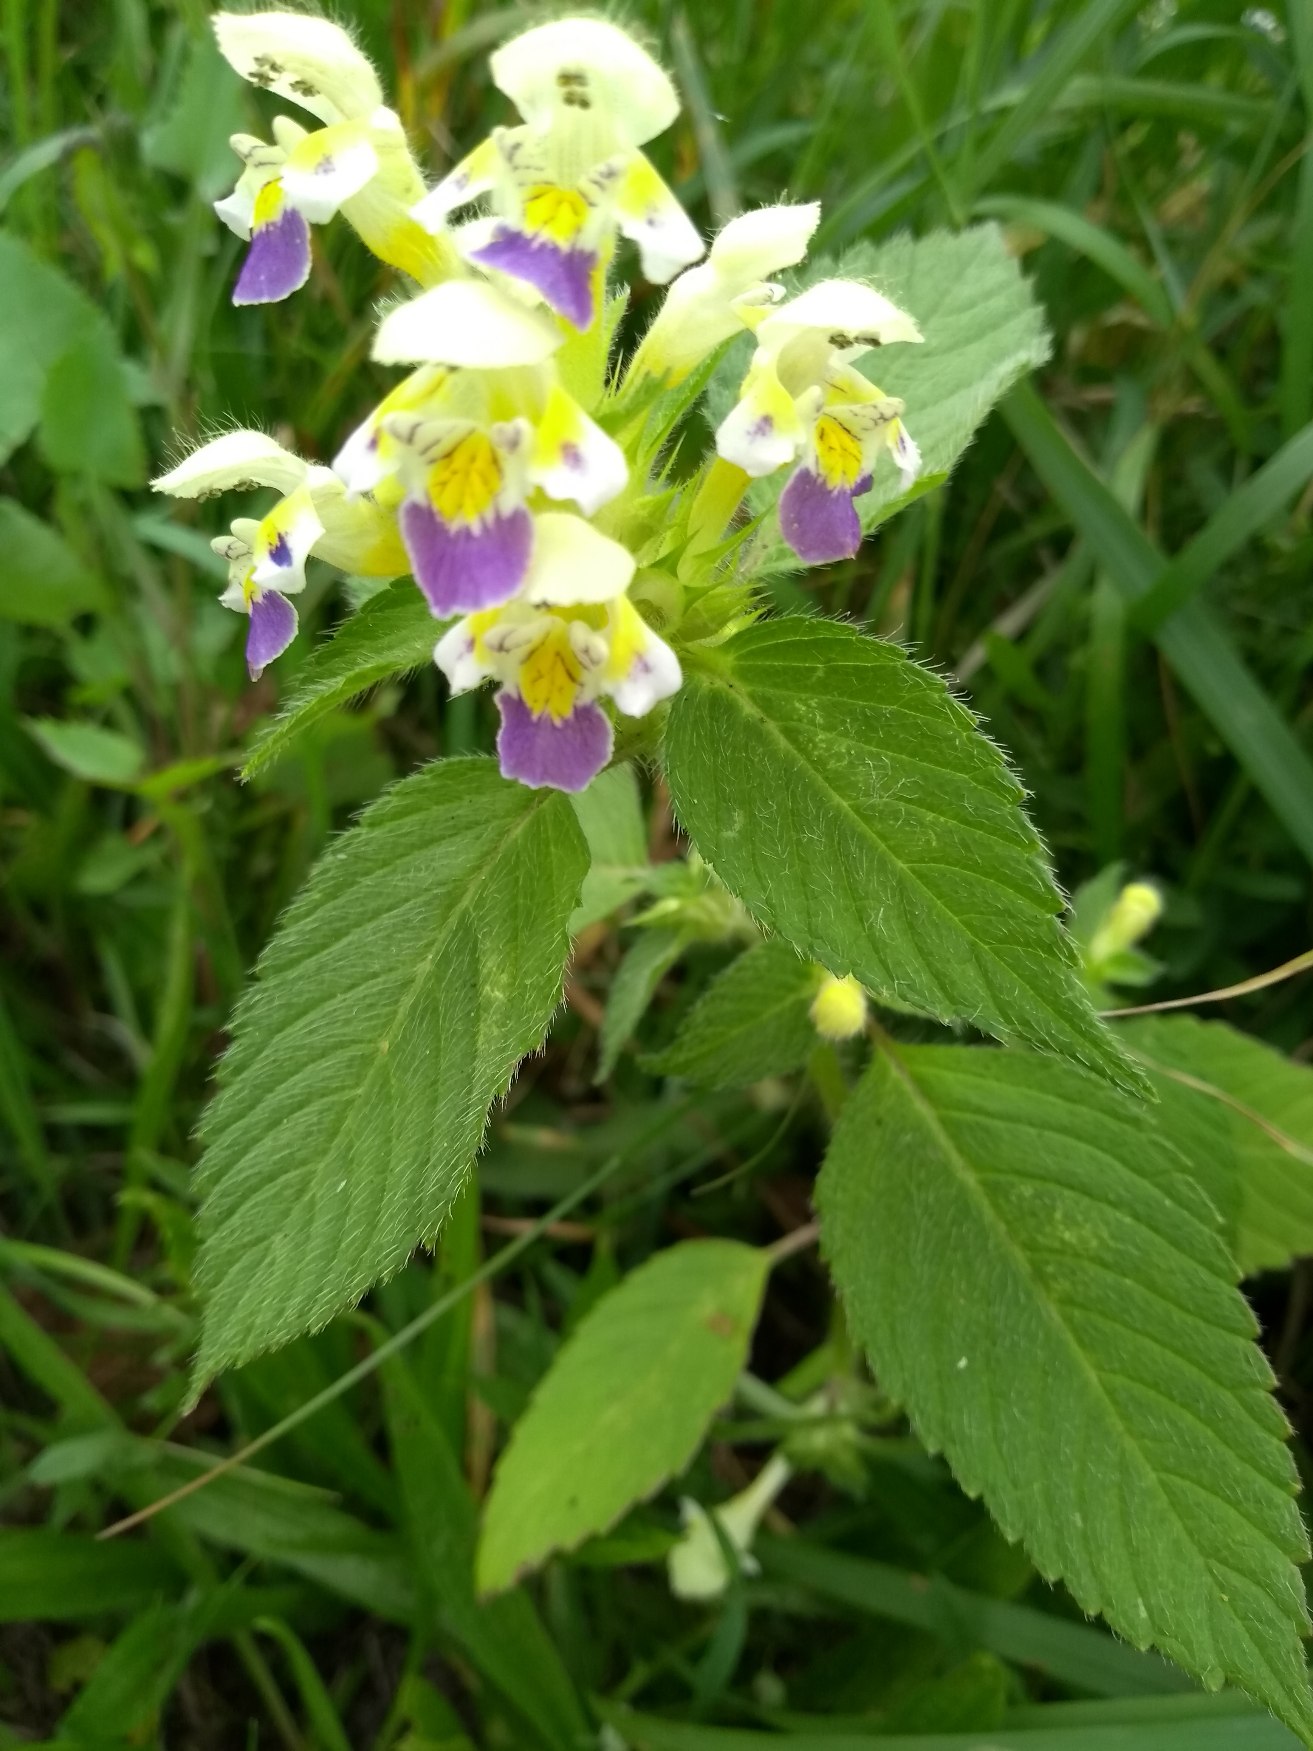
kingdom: Plantae
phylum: Tracheophyta
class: Magnoliopsida
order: Lamiales
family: Lamiaceae
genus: Galeopsis
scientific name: Galeopsis speciosa
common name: Hamp-hanekro
